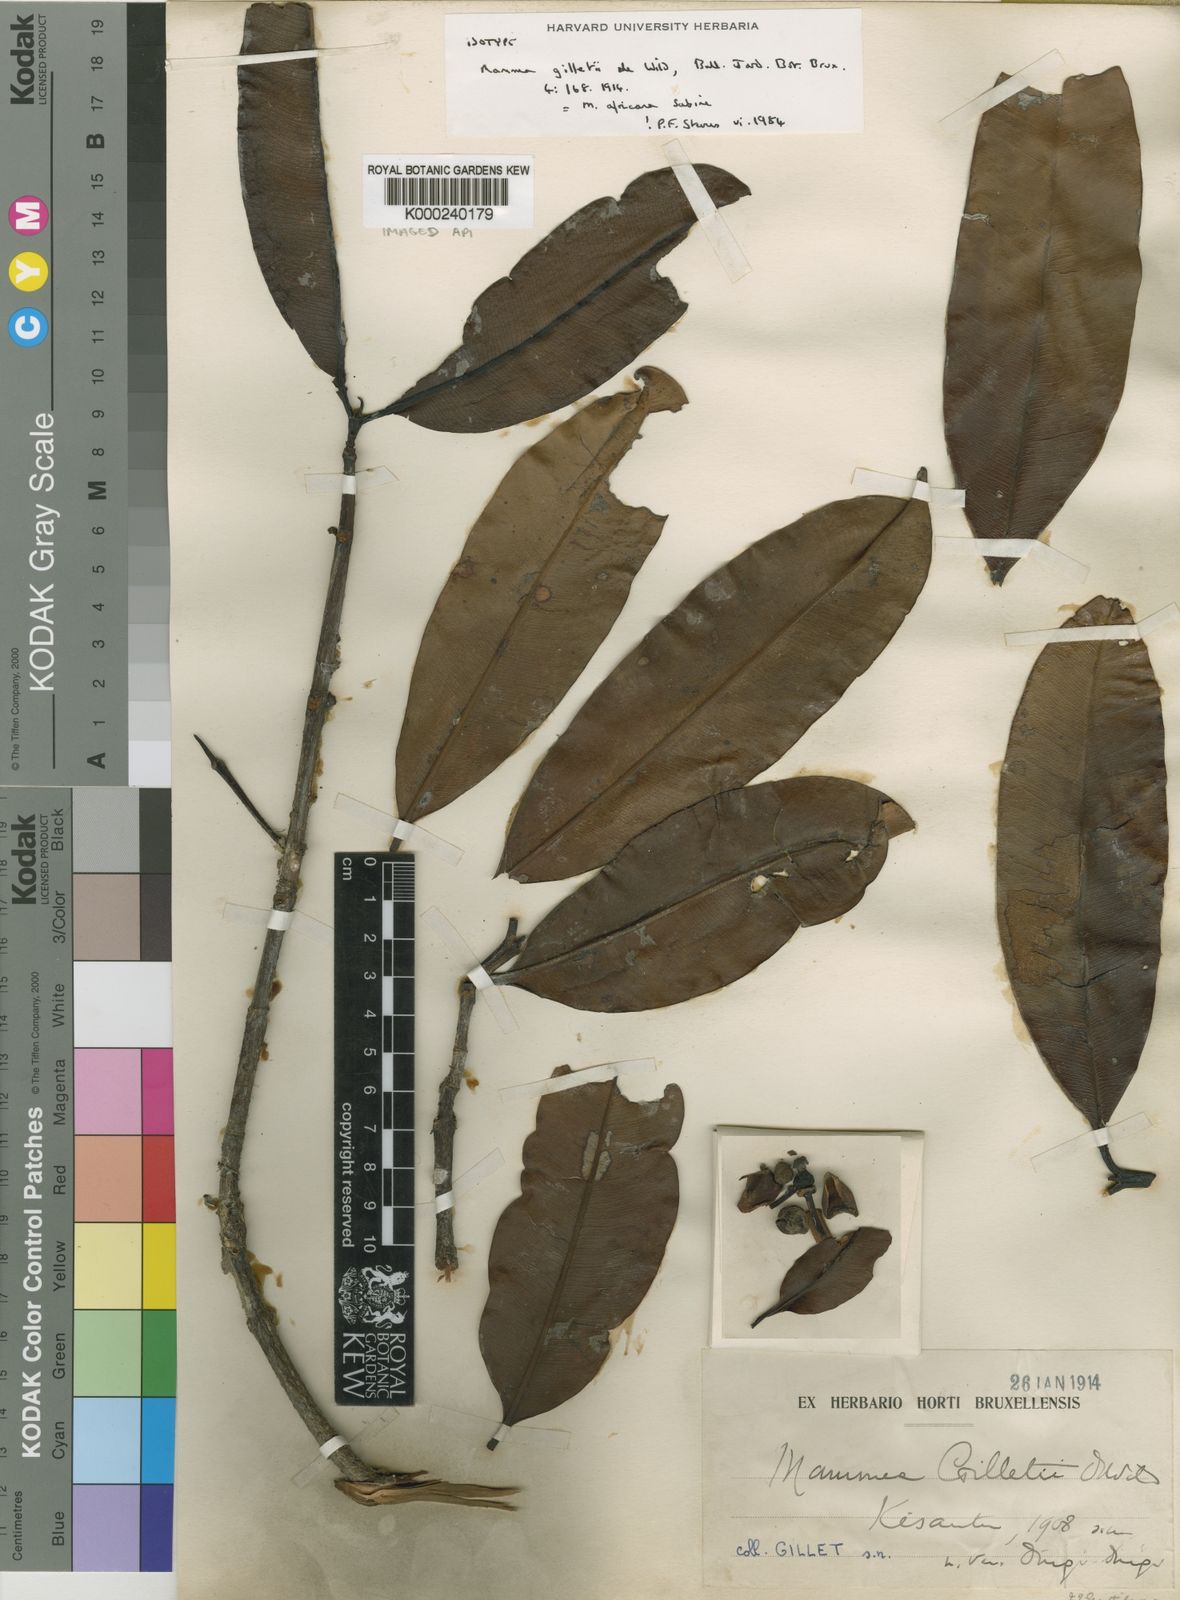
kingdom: Plantae
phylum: Tracheophyta
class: Magnoliopsida
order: Malpighiales
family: Calophyllaceae
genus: Mammea
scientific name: Mammea africana
